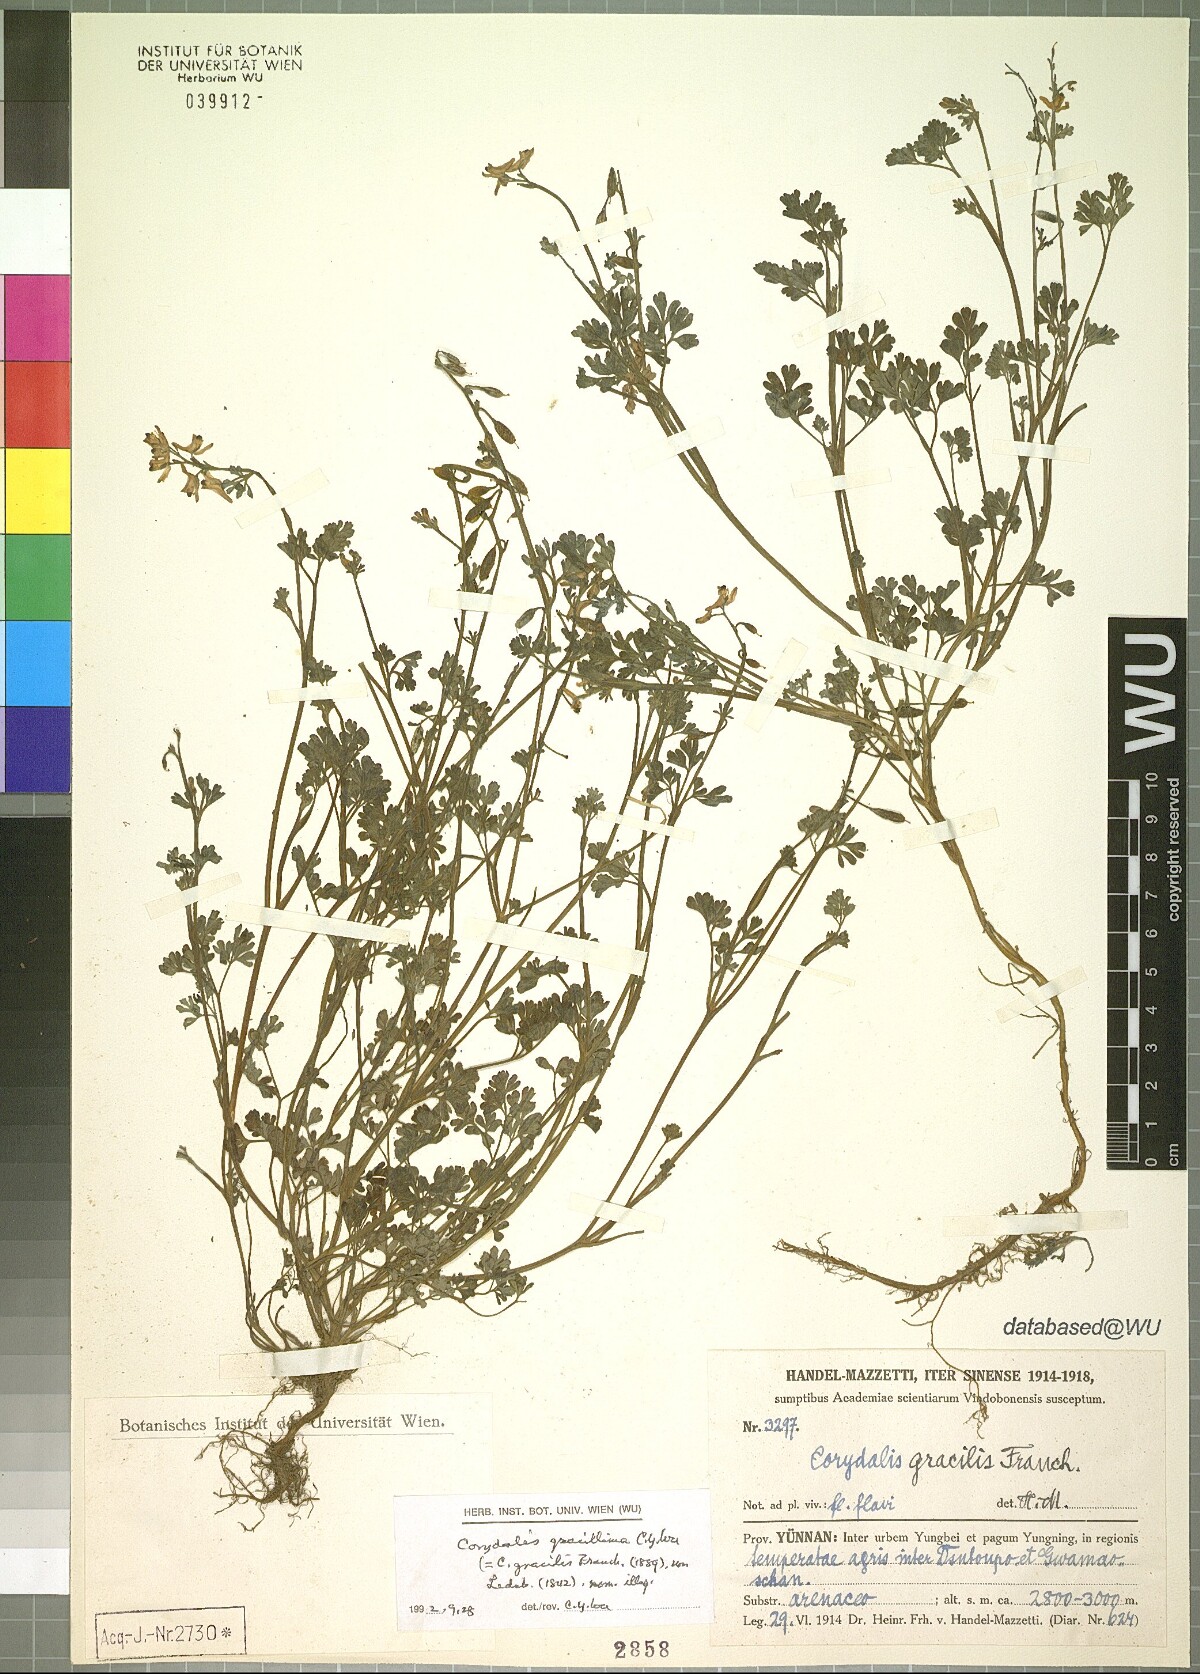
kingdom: Plantae
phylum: Tracheophyta
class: Magnoliopsida
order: Ranunculales
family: Papaveraceae
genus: Corydalis
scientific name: Corydalis gracillima
